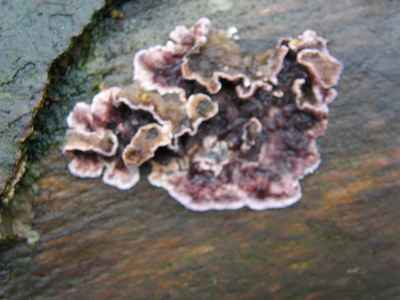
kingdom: Fungi
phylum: Basidiomycota
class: Agaricomycetes
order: Agaricales
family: Cyphellaceae
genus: Chondrostereum
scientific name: Chondrostereum purpureum
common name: purpurlædersvamp
